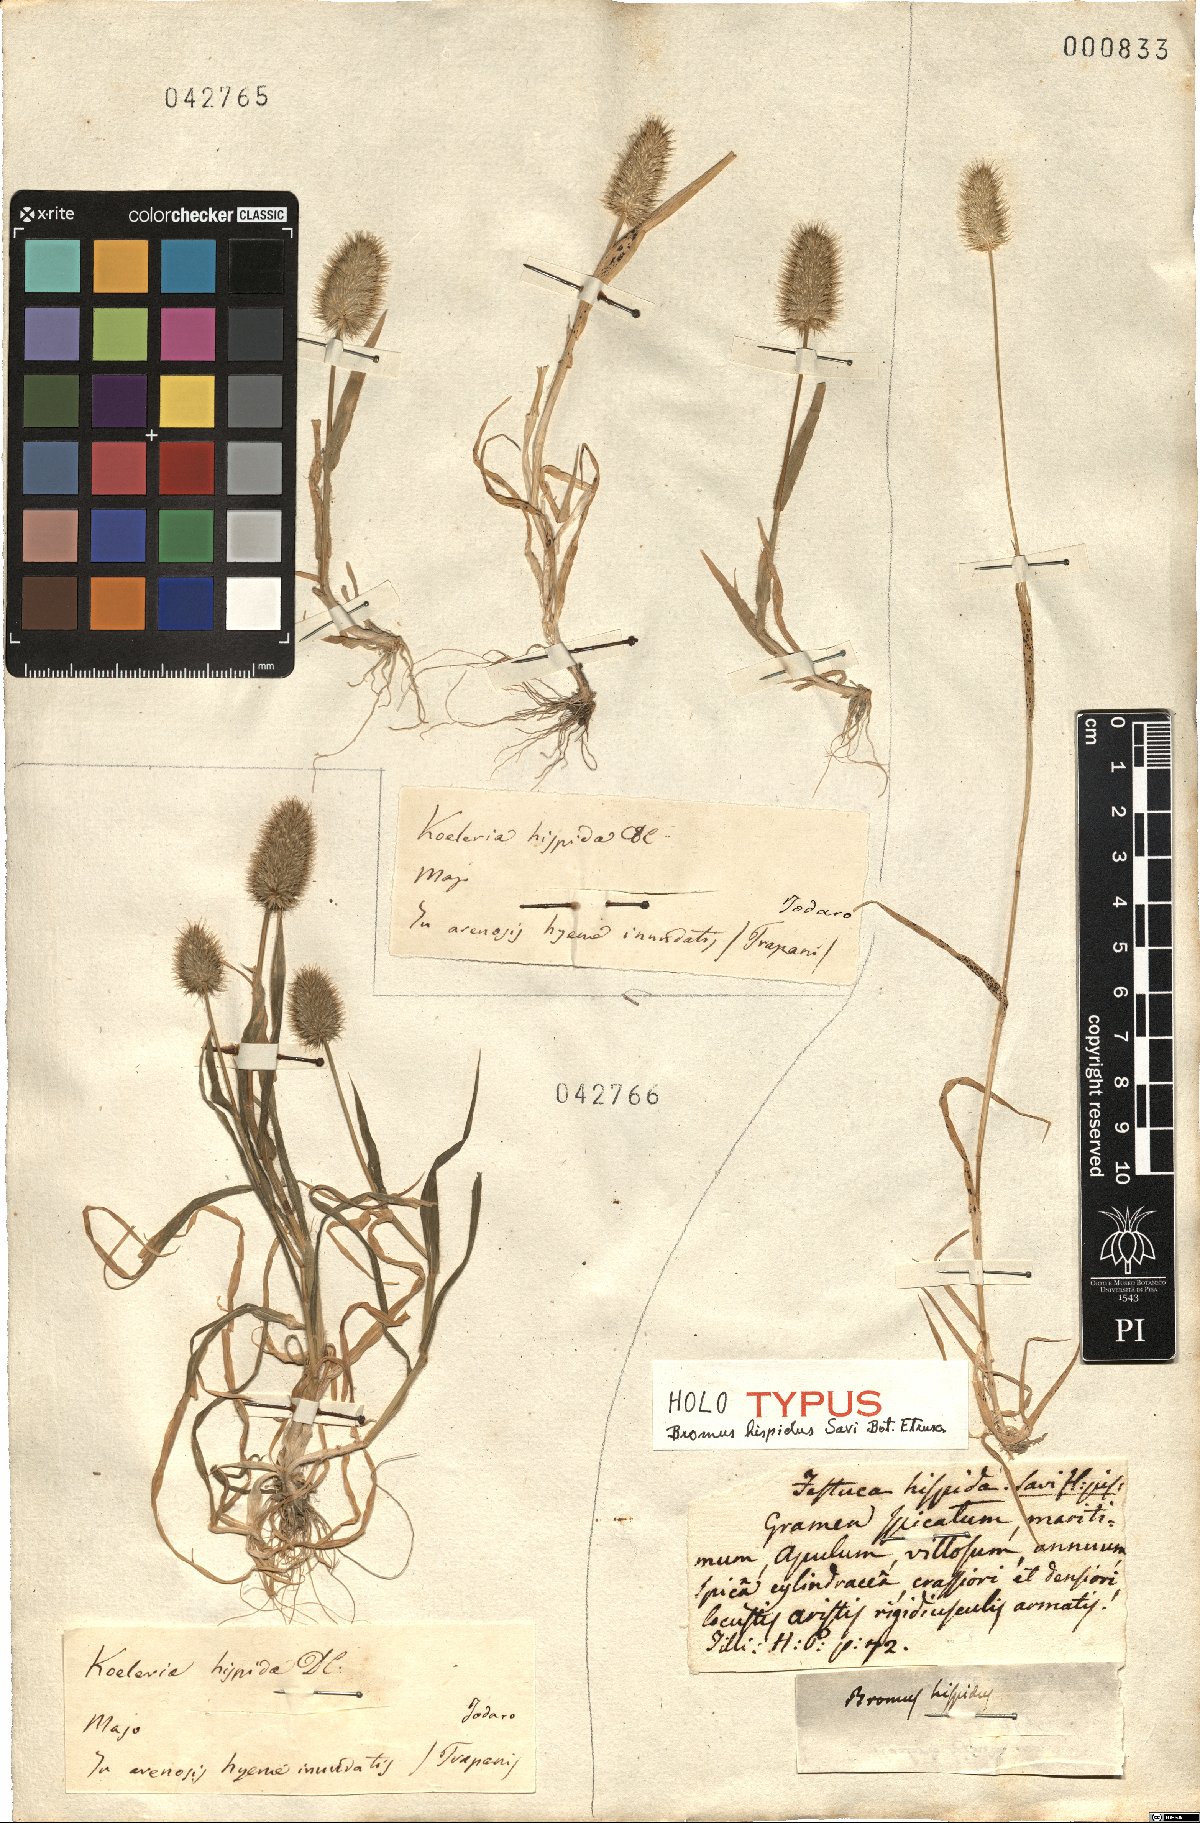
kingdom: Plantae
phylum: Tracheophyta
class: Liliopsida
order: Poales
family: Poaceae
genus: Rostraria
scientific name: Rostraria hispida
